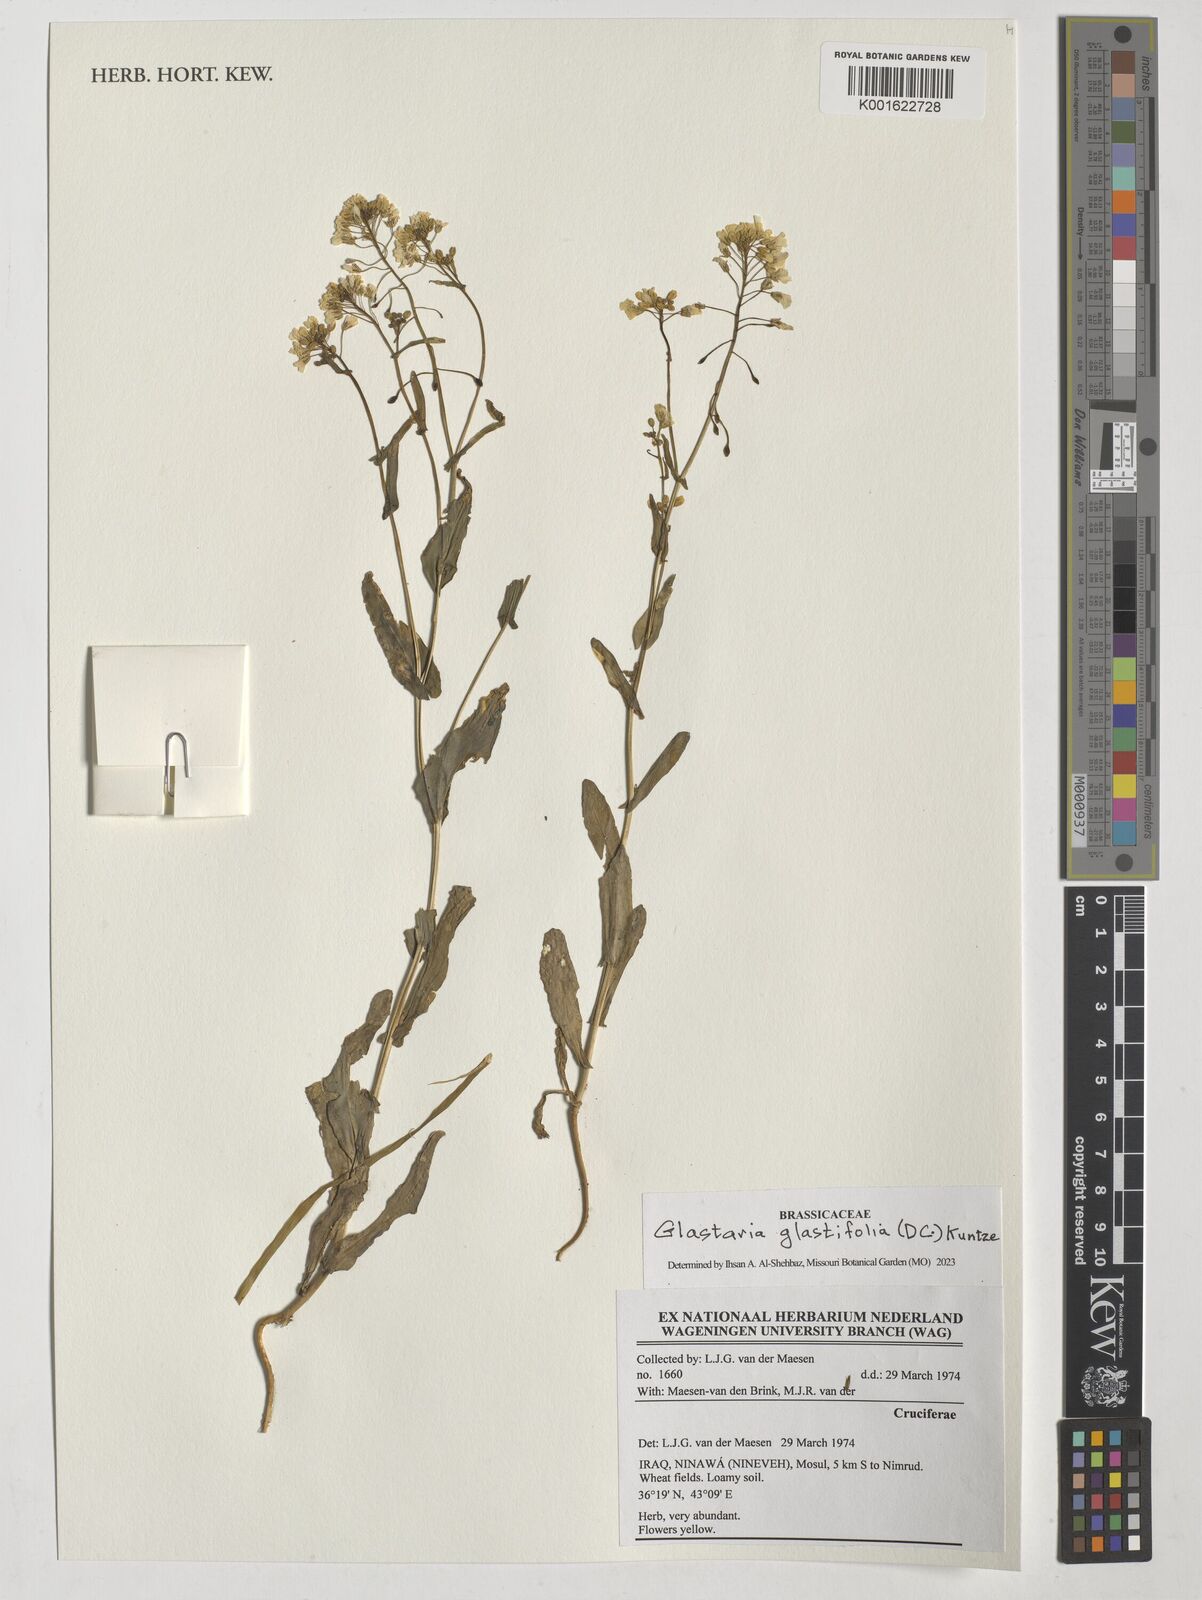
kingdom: Plantae
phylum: Tracheophyta
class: Magnoliopsida
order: Brassicales
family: Brassicaceae
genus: Glastaria
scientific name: Glastaria glastifolia
